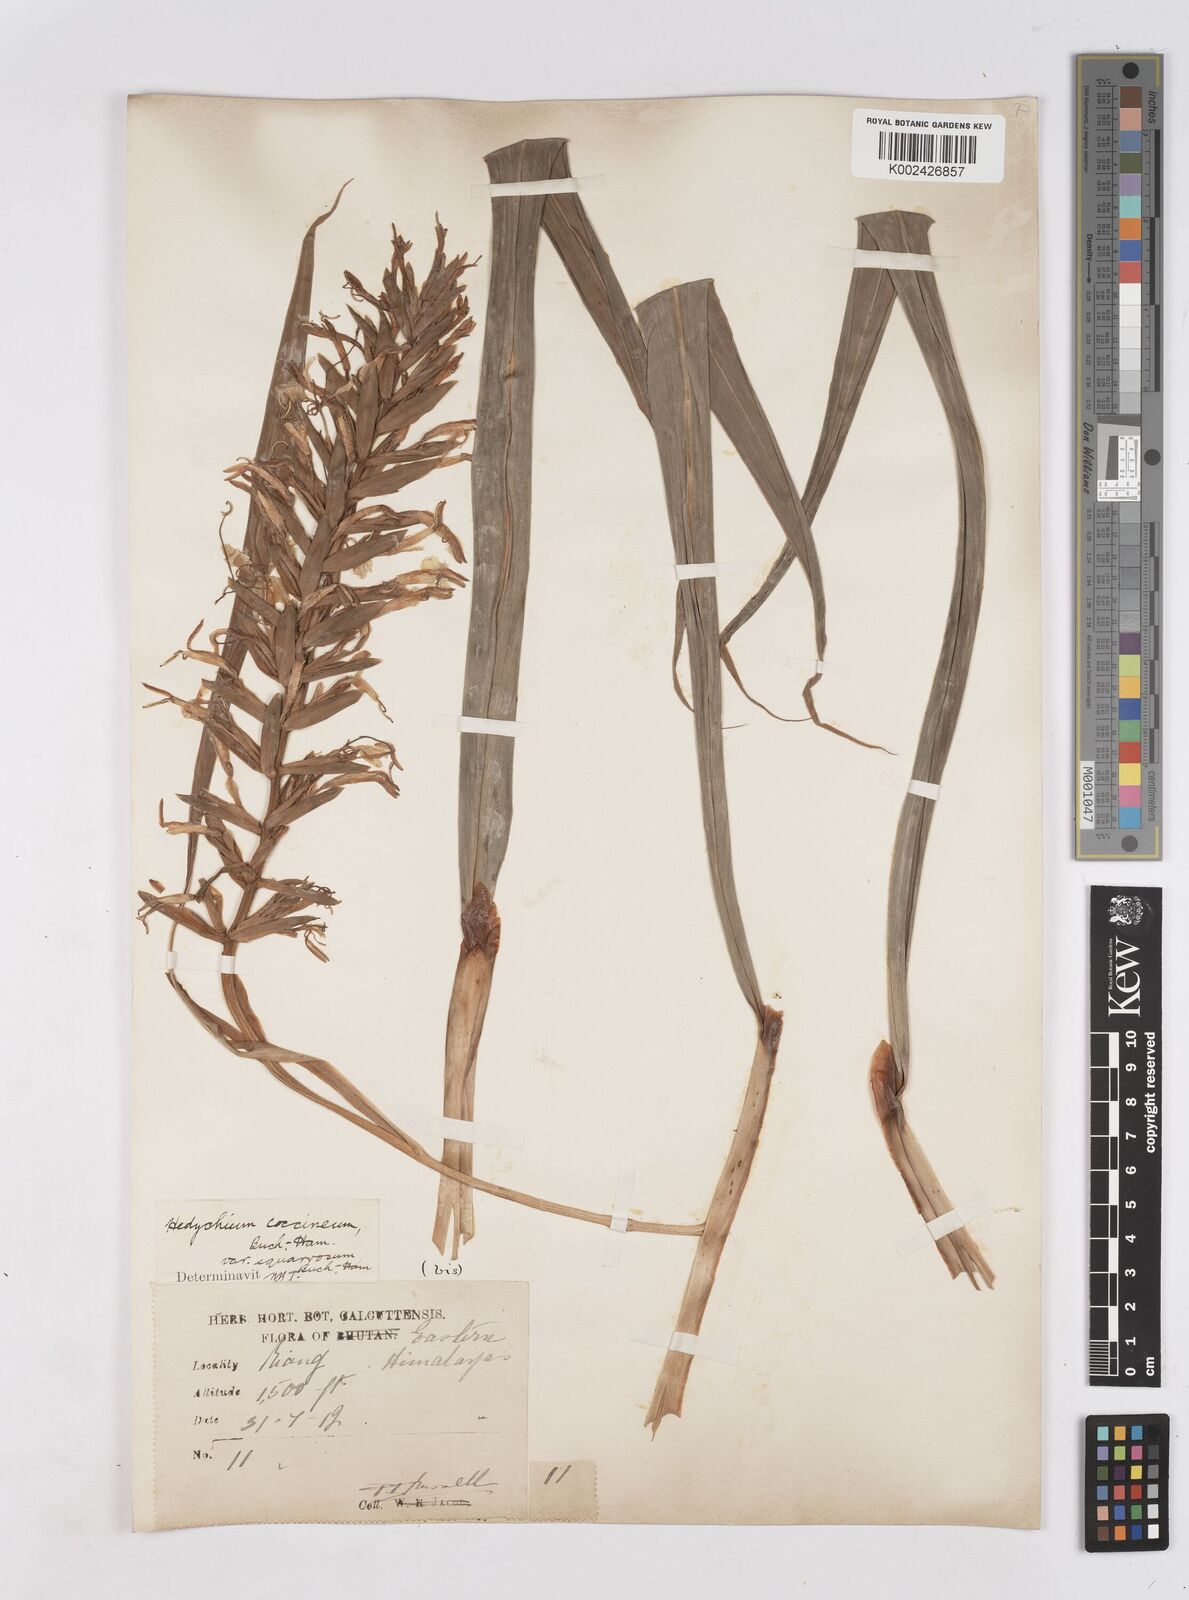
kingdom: Plantae
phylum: Tracheophyta
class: Liliopsida
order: Zingiberales
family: Zingiberaceae
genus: Hedychium
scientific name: Hedychium coccineum
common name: Red ginger-lily
